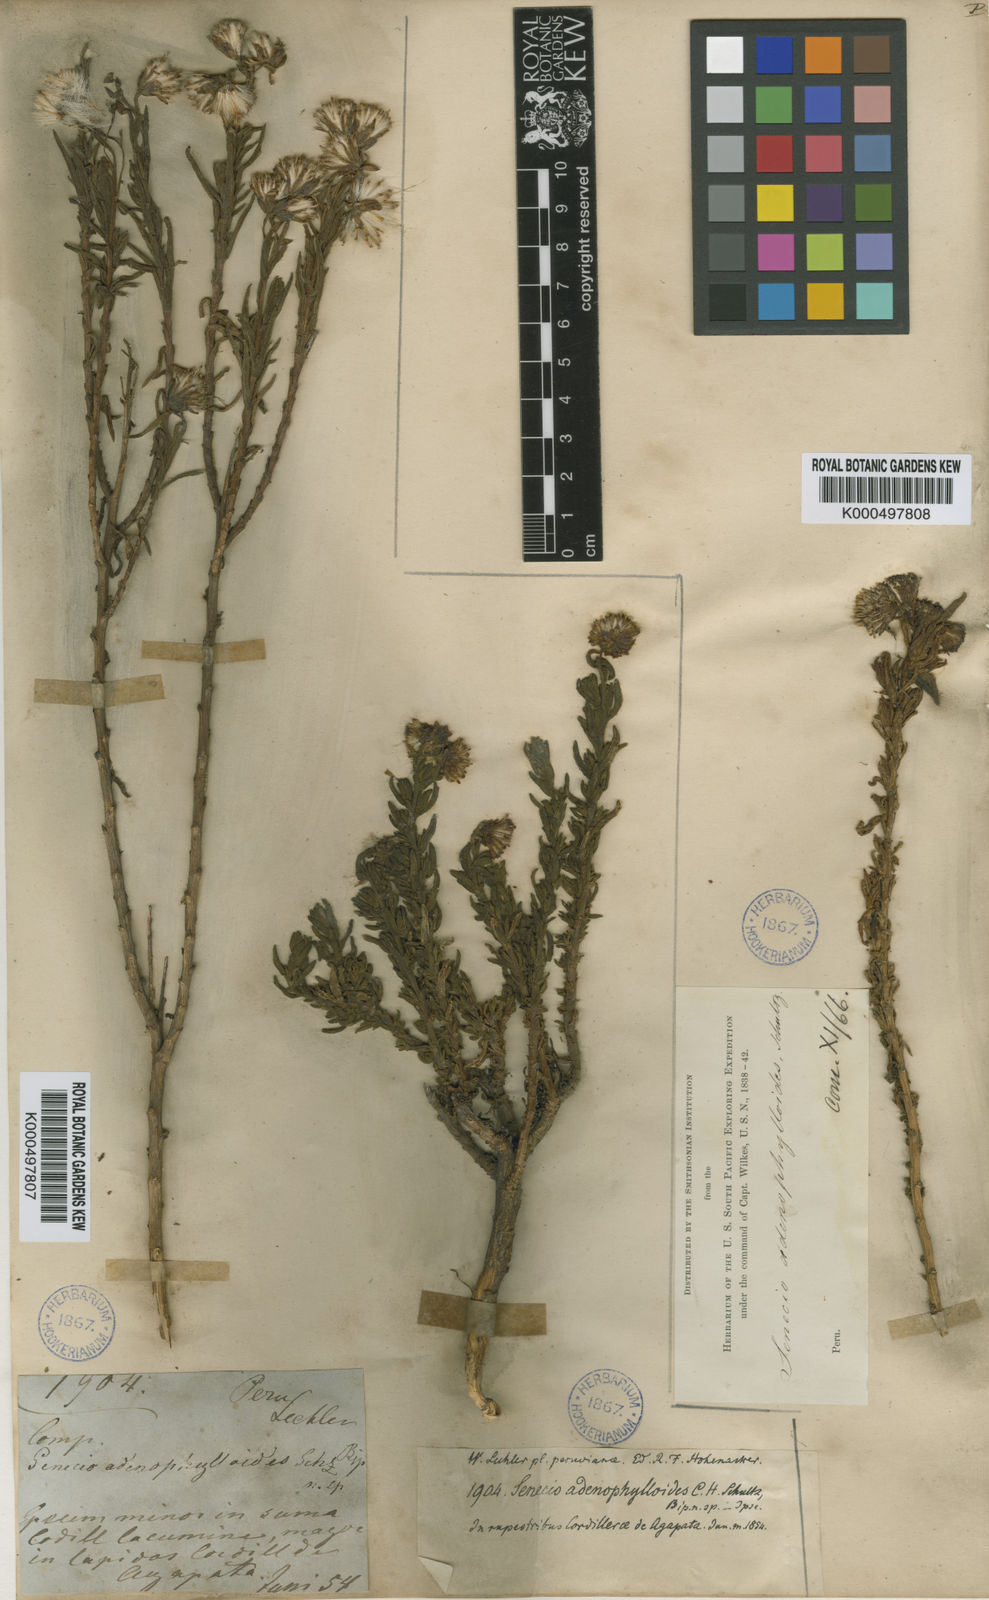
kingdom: Plantae
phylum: Tracheophyta
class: Magnoliopsida
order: Asterales
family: Asteraceae
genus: Senecio
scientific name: Senecio
